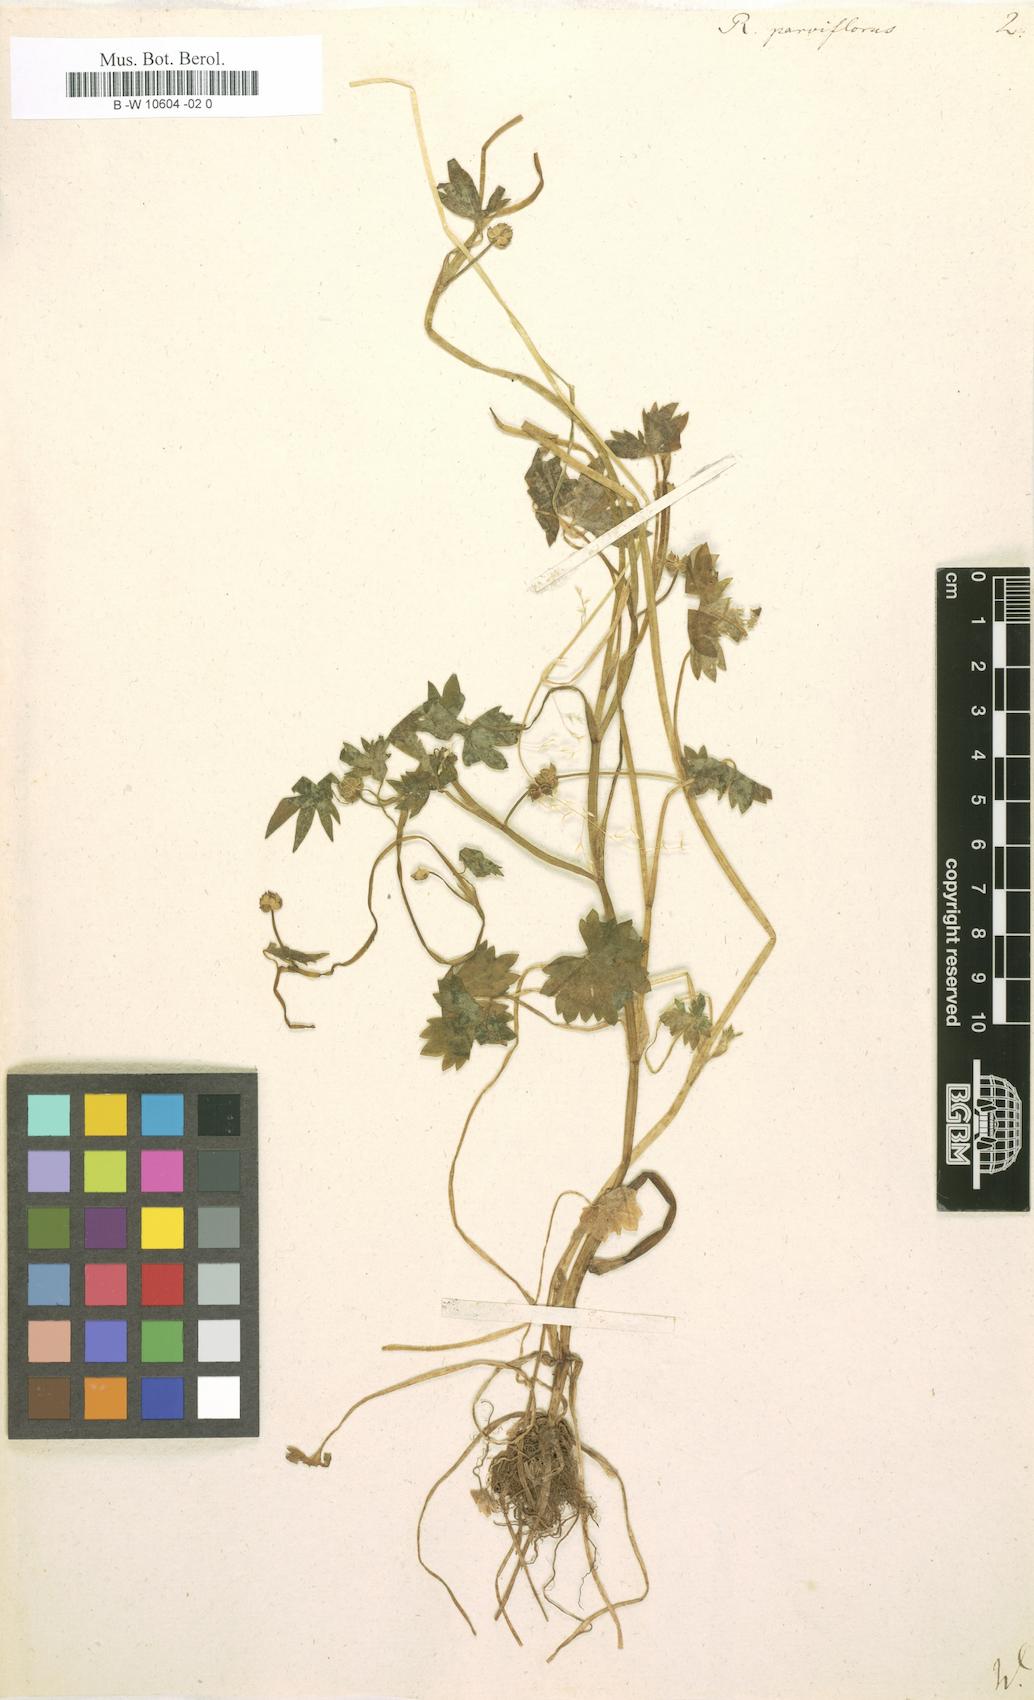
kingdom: Plantae
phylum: Tracheophyta
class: Magnoliopsida
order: Ranunculales
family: Ranunculaceae
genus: Ranunculus
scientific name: Ranunculus parviflorus
